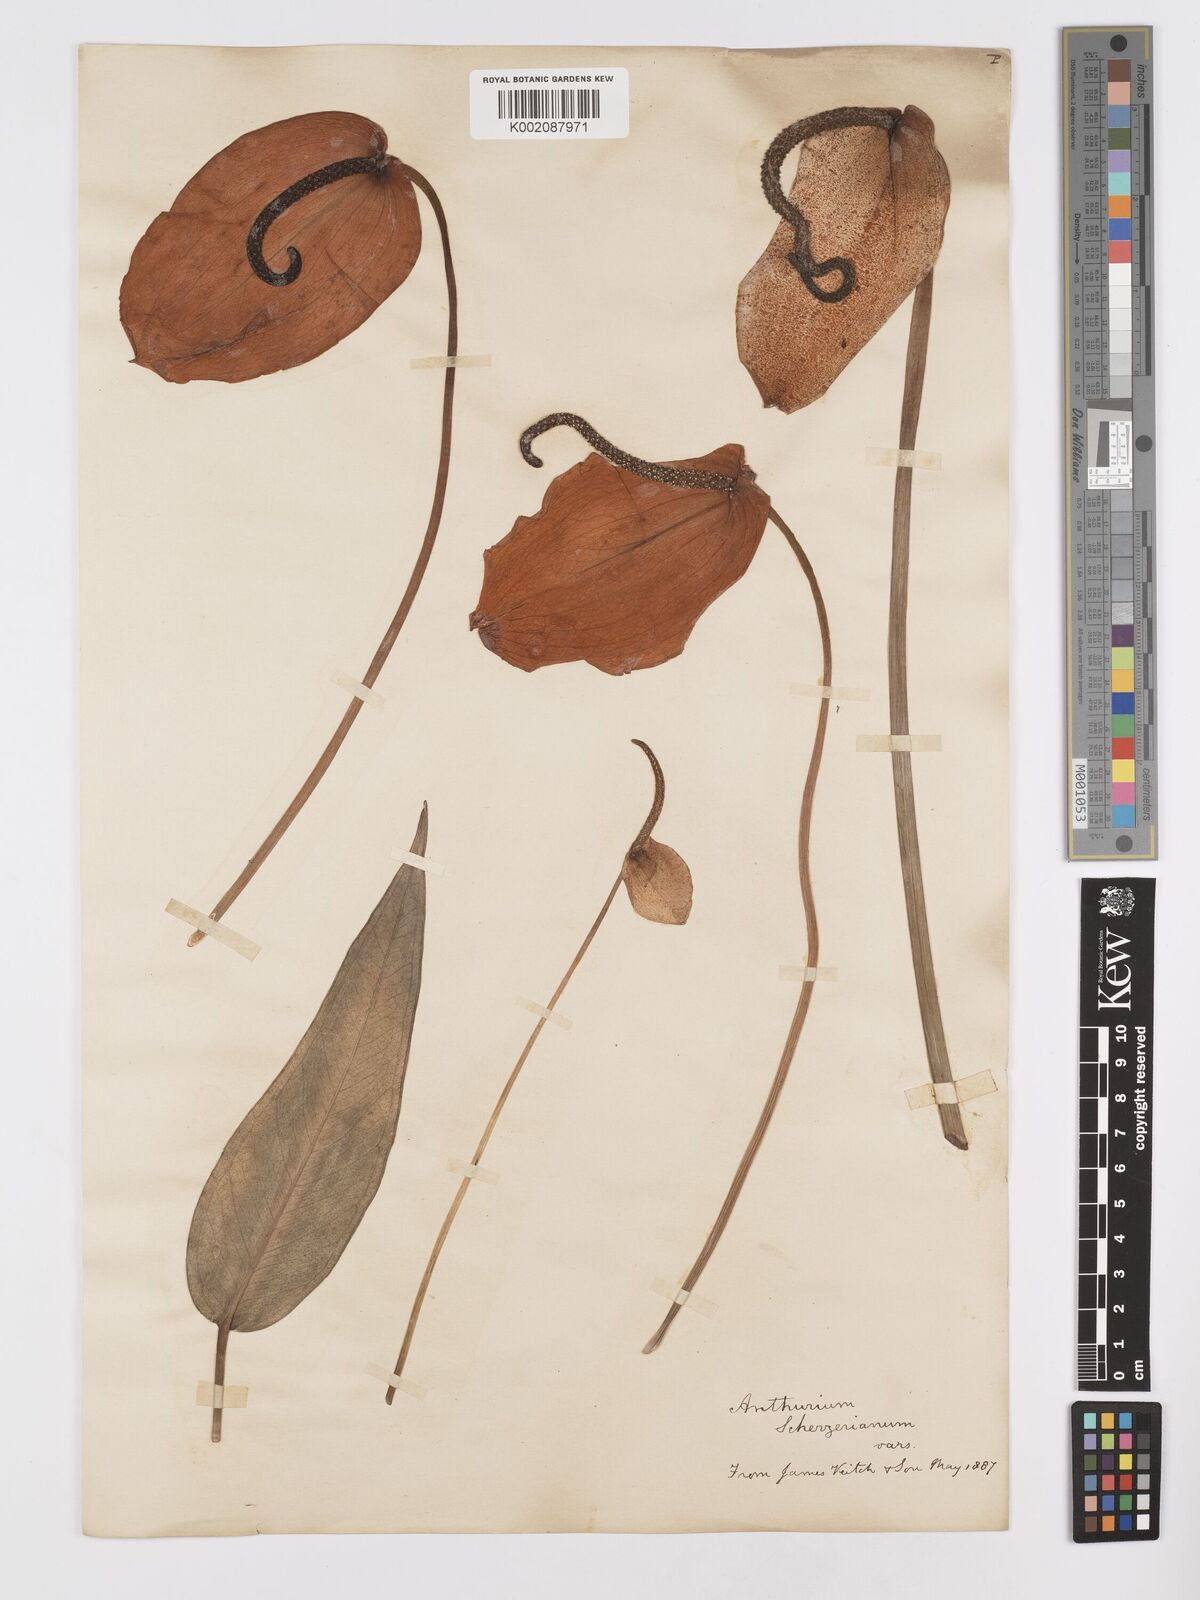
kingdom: Plantae
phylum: Tracheophyta
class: Liliopsida
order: Alismatales
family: Araceae
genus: Anthurium
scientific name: Anthurium scherzerianum
